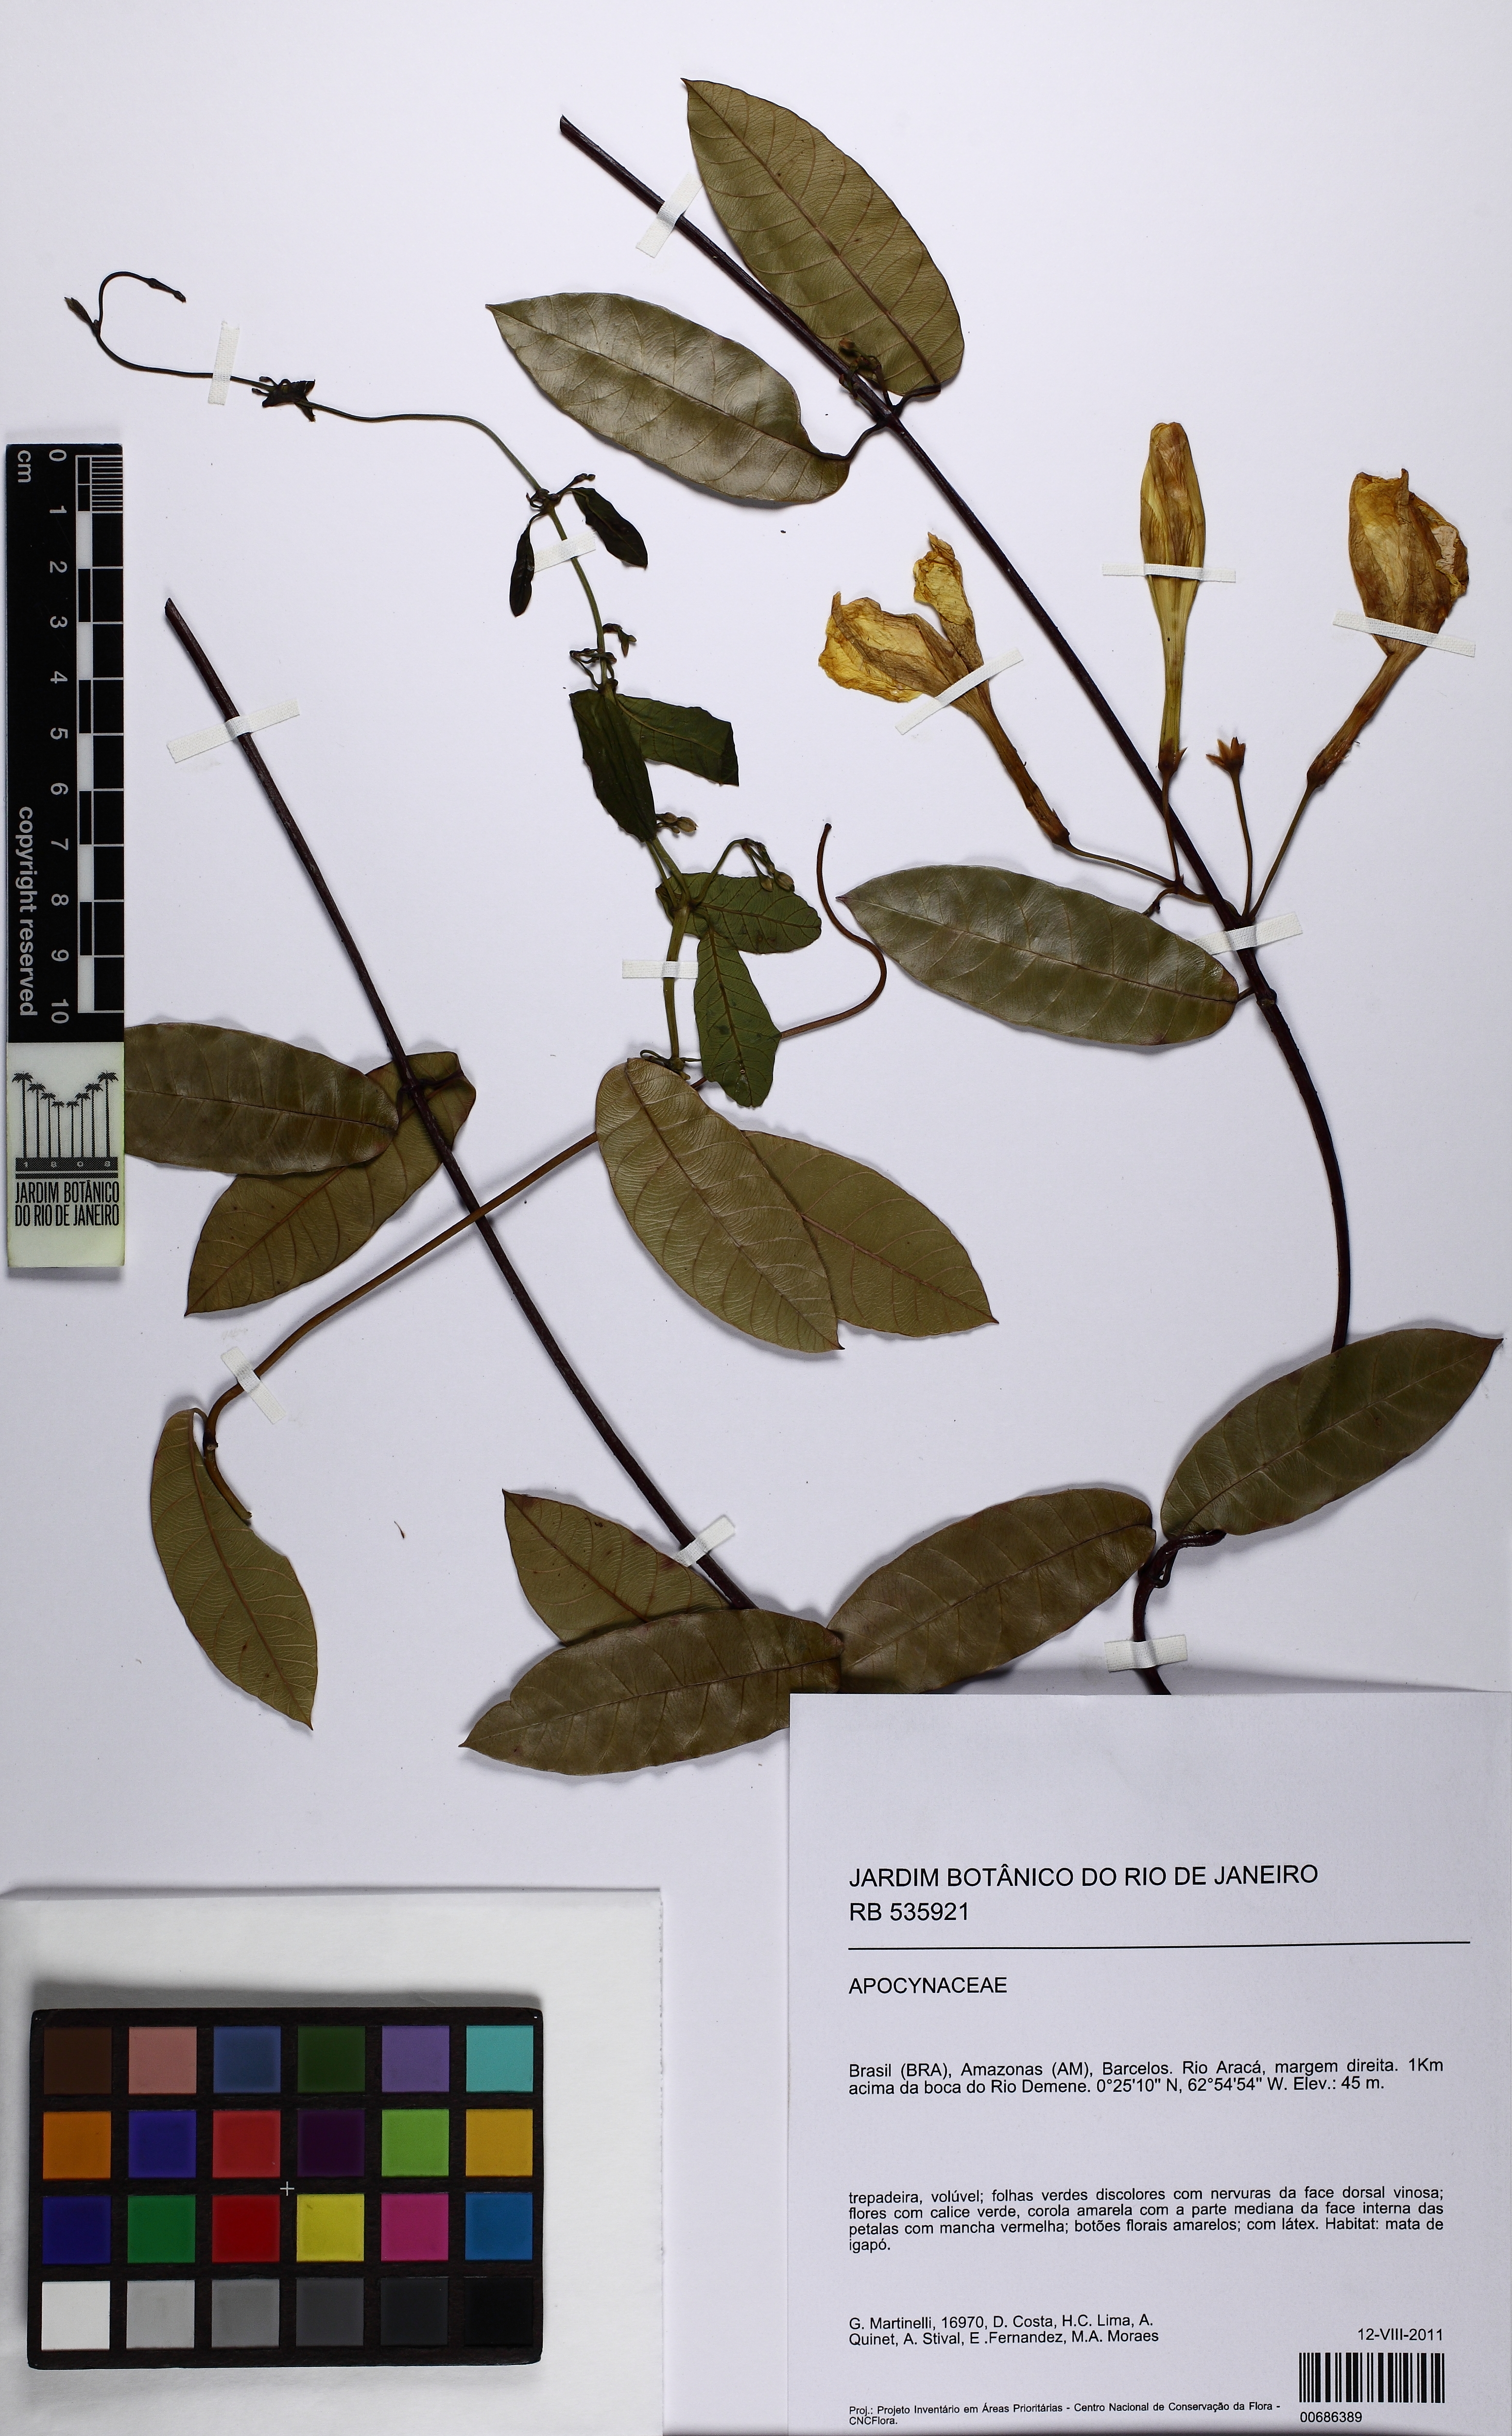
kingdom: Plantae
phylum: Tracheophyta
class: Magnoliopsida
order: Gentianales
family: Apocynaceae
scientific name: Apocynaceae
